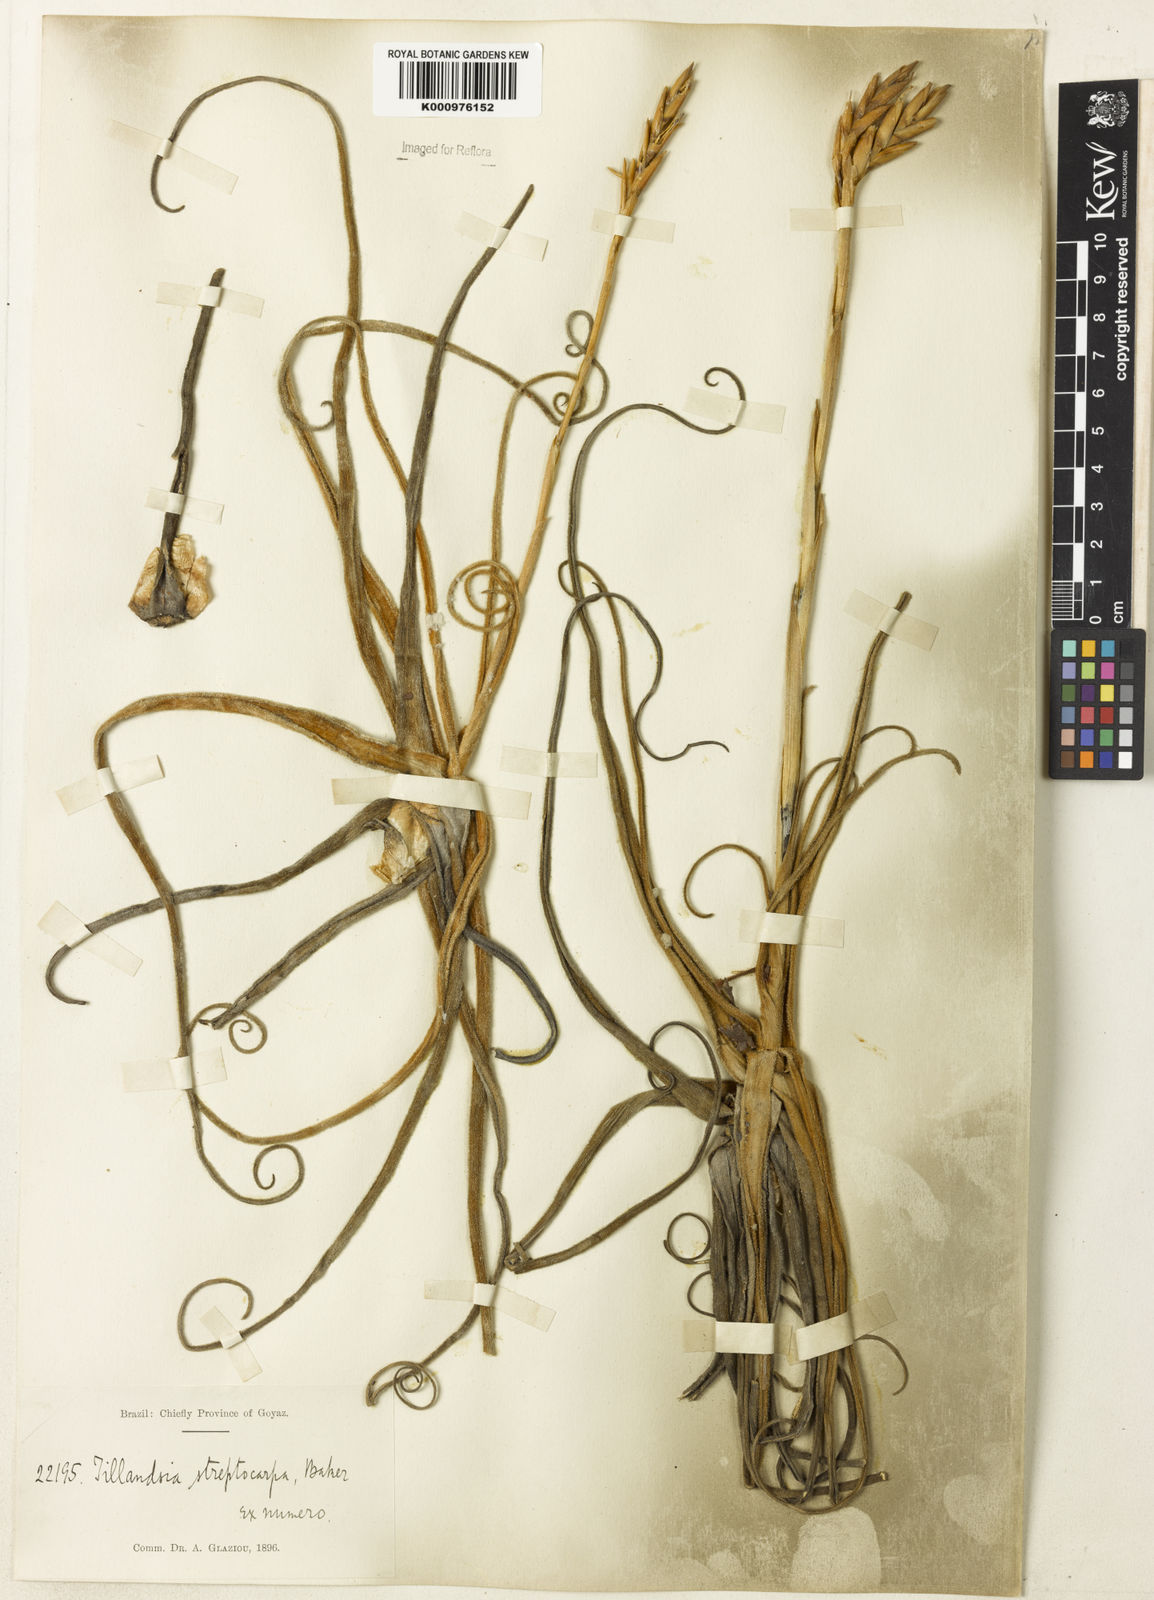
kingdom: Plantae
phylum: Tracheophyta
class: Liliopsida
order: Poales
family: Bromeliaceae
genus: Tillandsia
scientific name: Tillandsia streptocarpa
